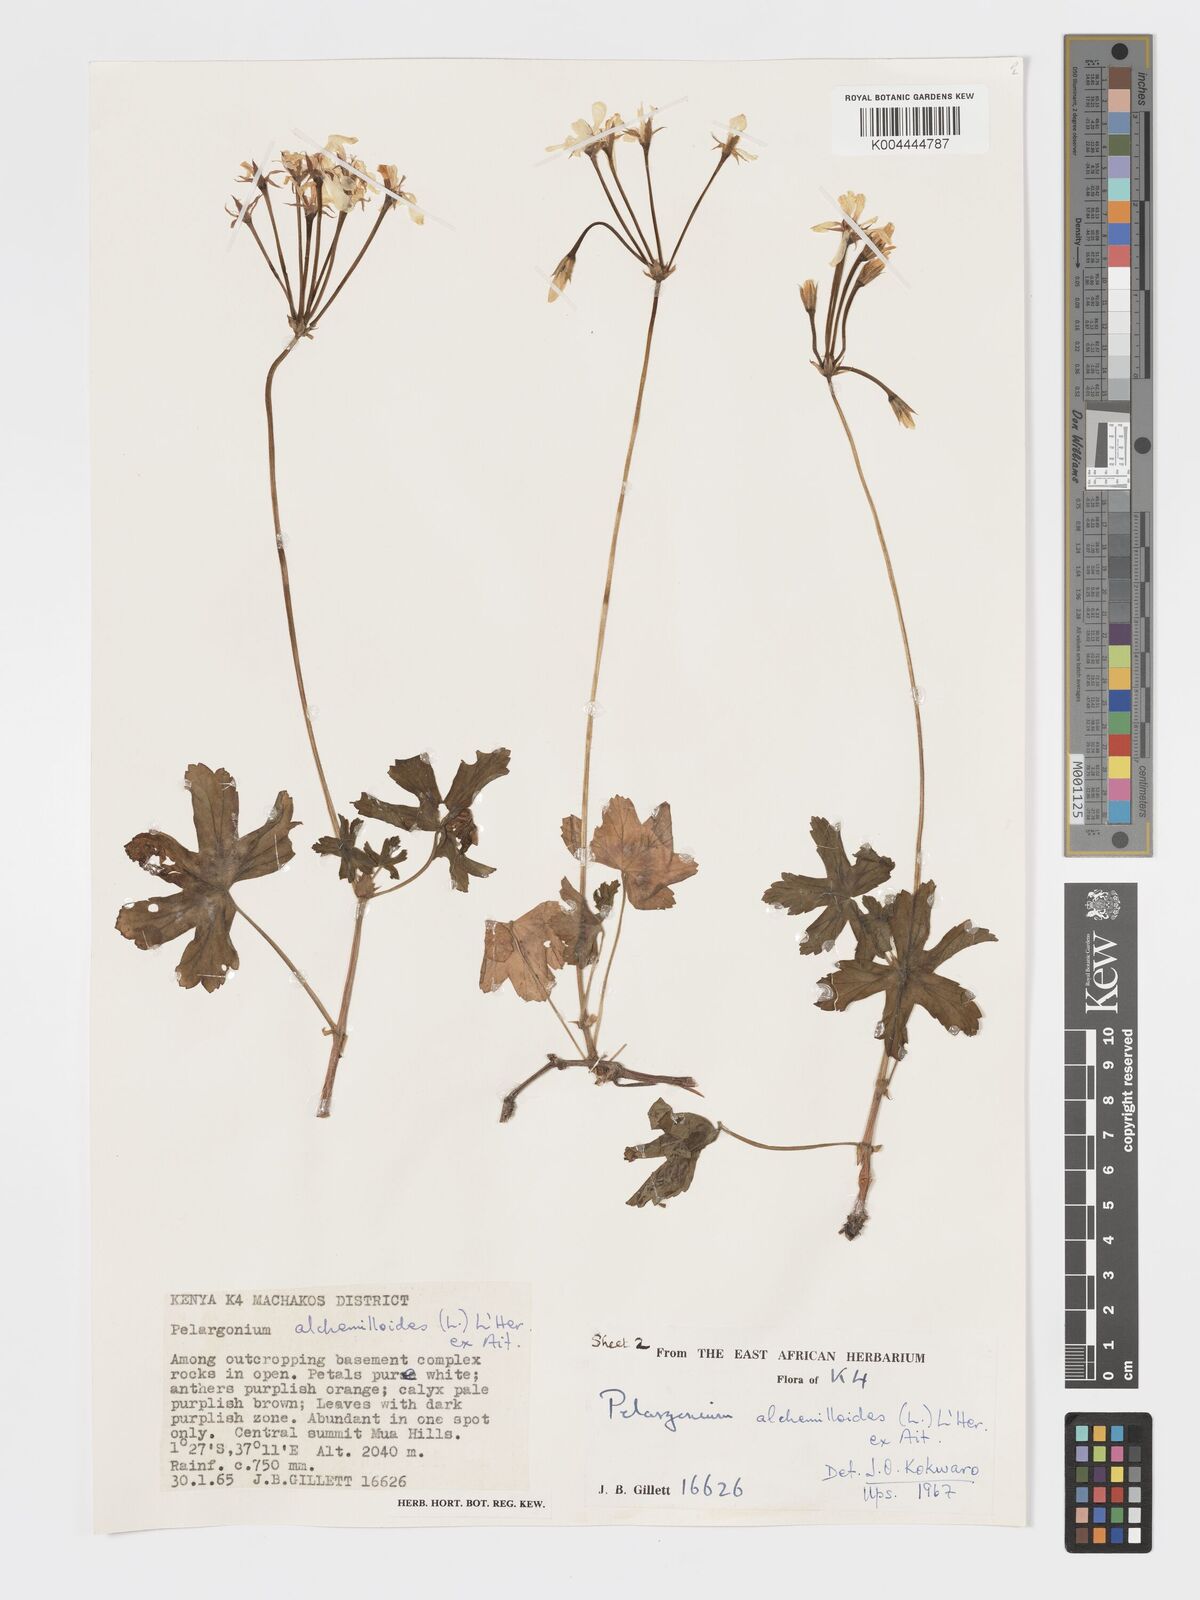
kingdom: Plantae
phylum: Tracheophyta
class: Magnoliopsida
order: Geraniales
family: Geraniaceae
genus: Pelargonium
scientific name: Pelargonium alchemilloides
